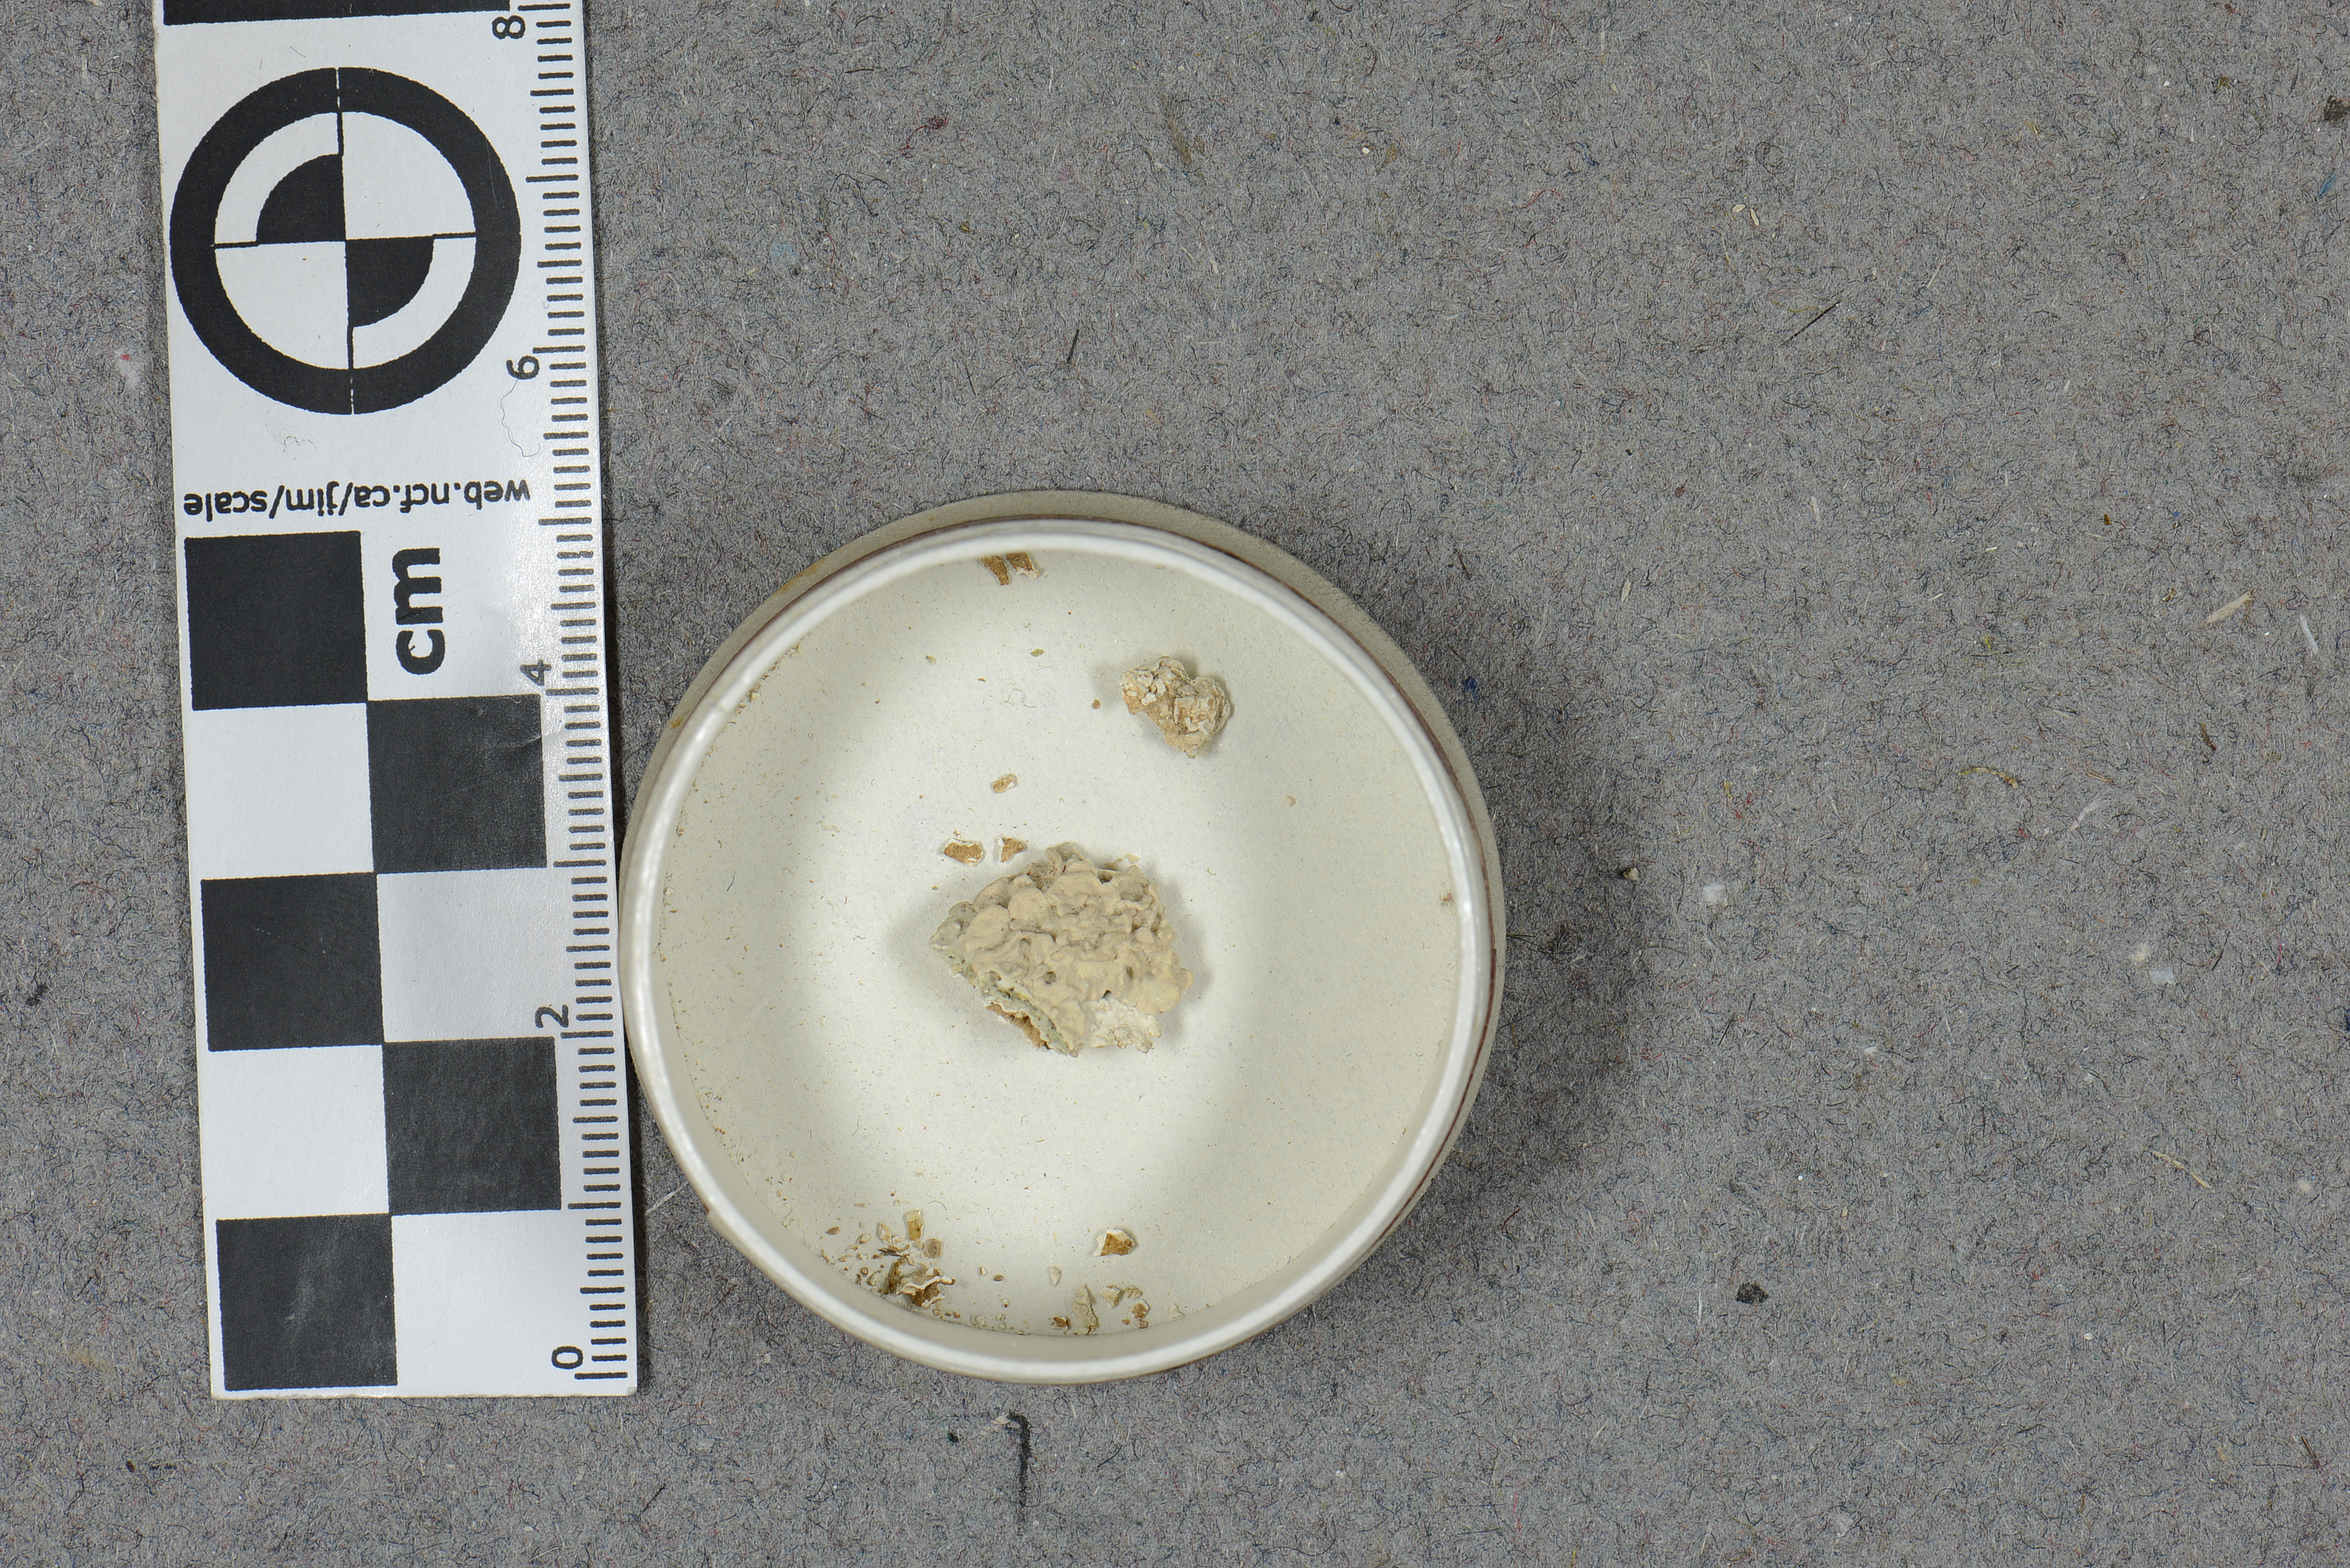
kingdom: Plantae
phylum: Rhodophyta
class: Florideophyceae
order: Corallinales
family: Lithophyllaceae
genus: Tenarea
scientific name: Tenarea tortuosa
